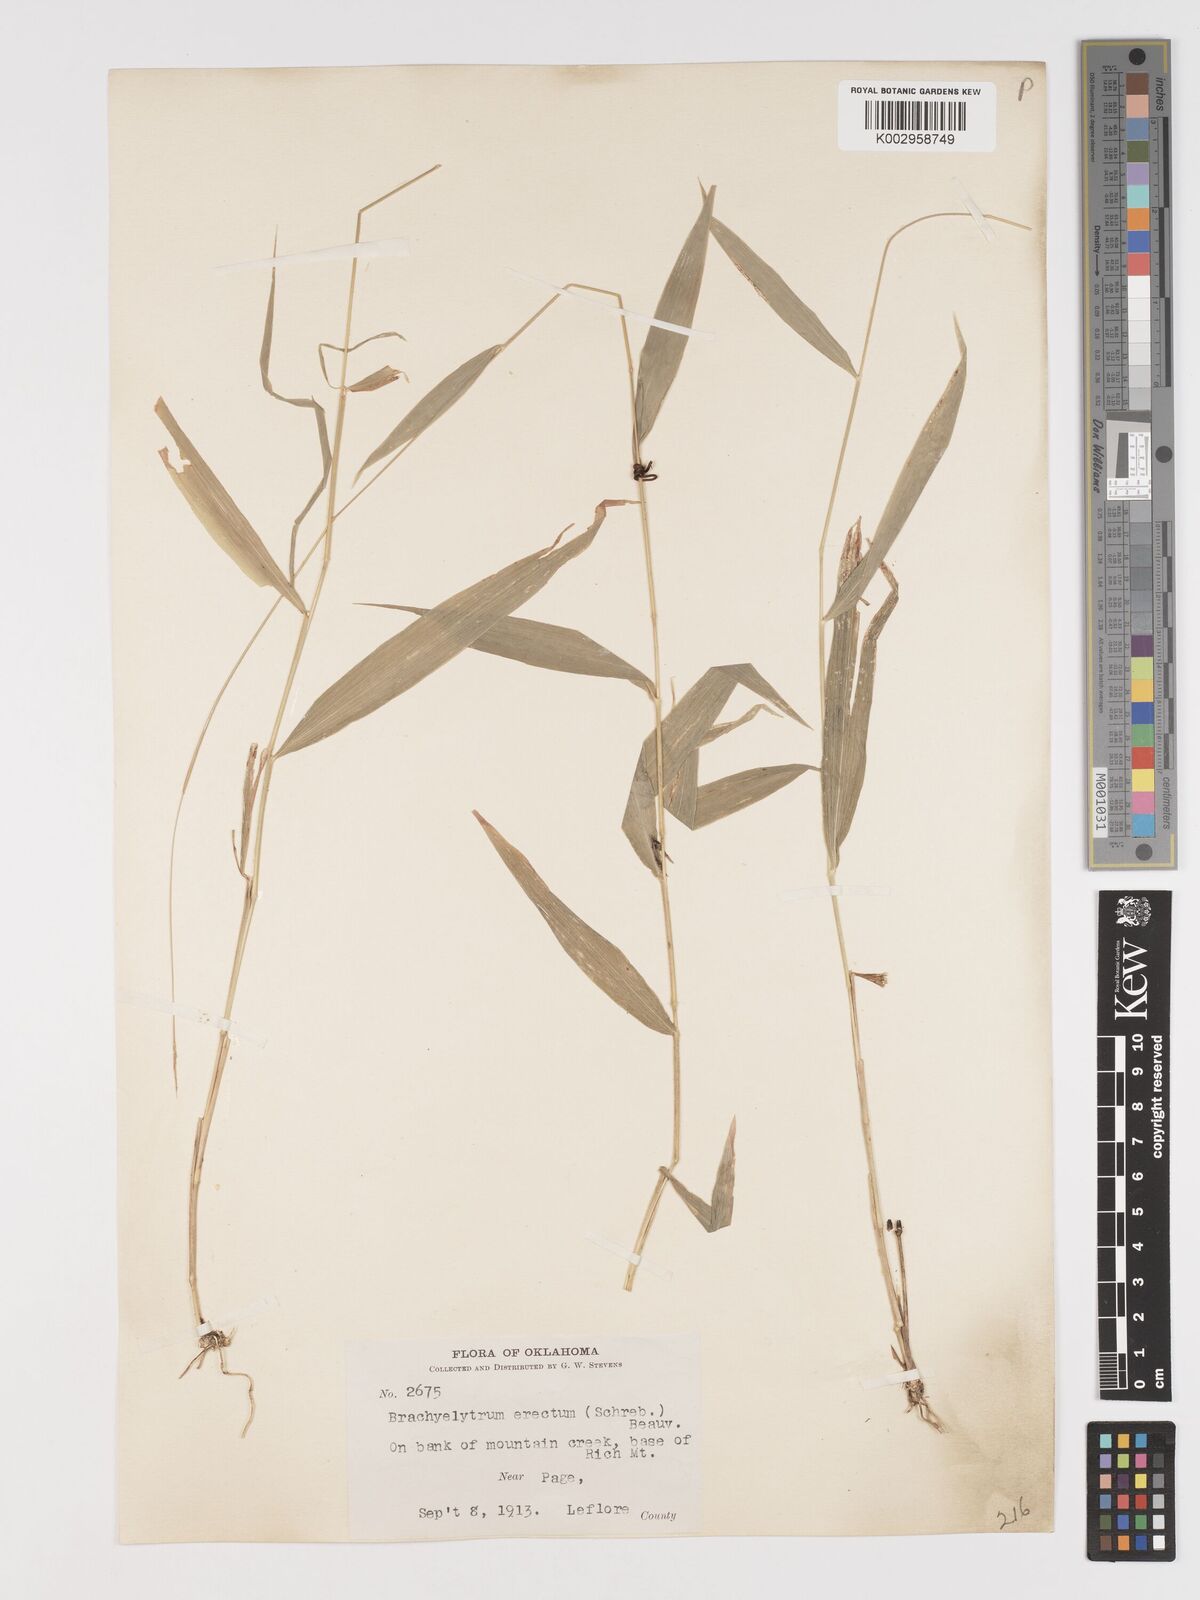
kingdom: Plantae
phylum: Tracheophyta
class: Liliopsida
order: Poales
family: Poaceae
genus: Brachyelytrum
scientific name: Brachyelytrum erectum
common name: Bearded shorthusk
